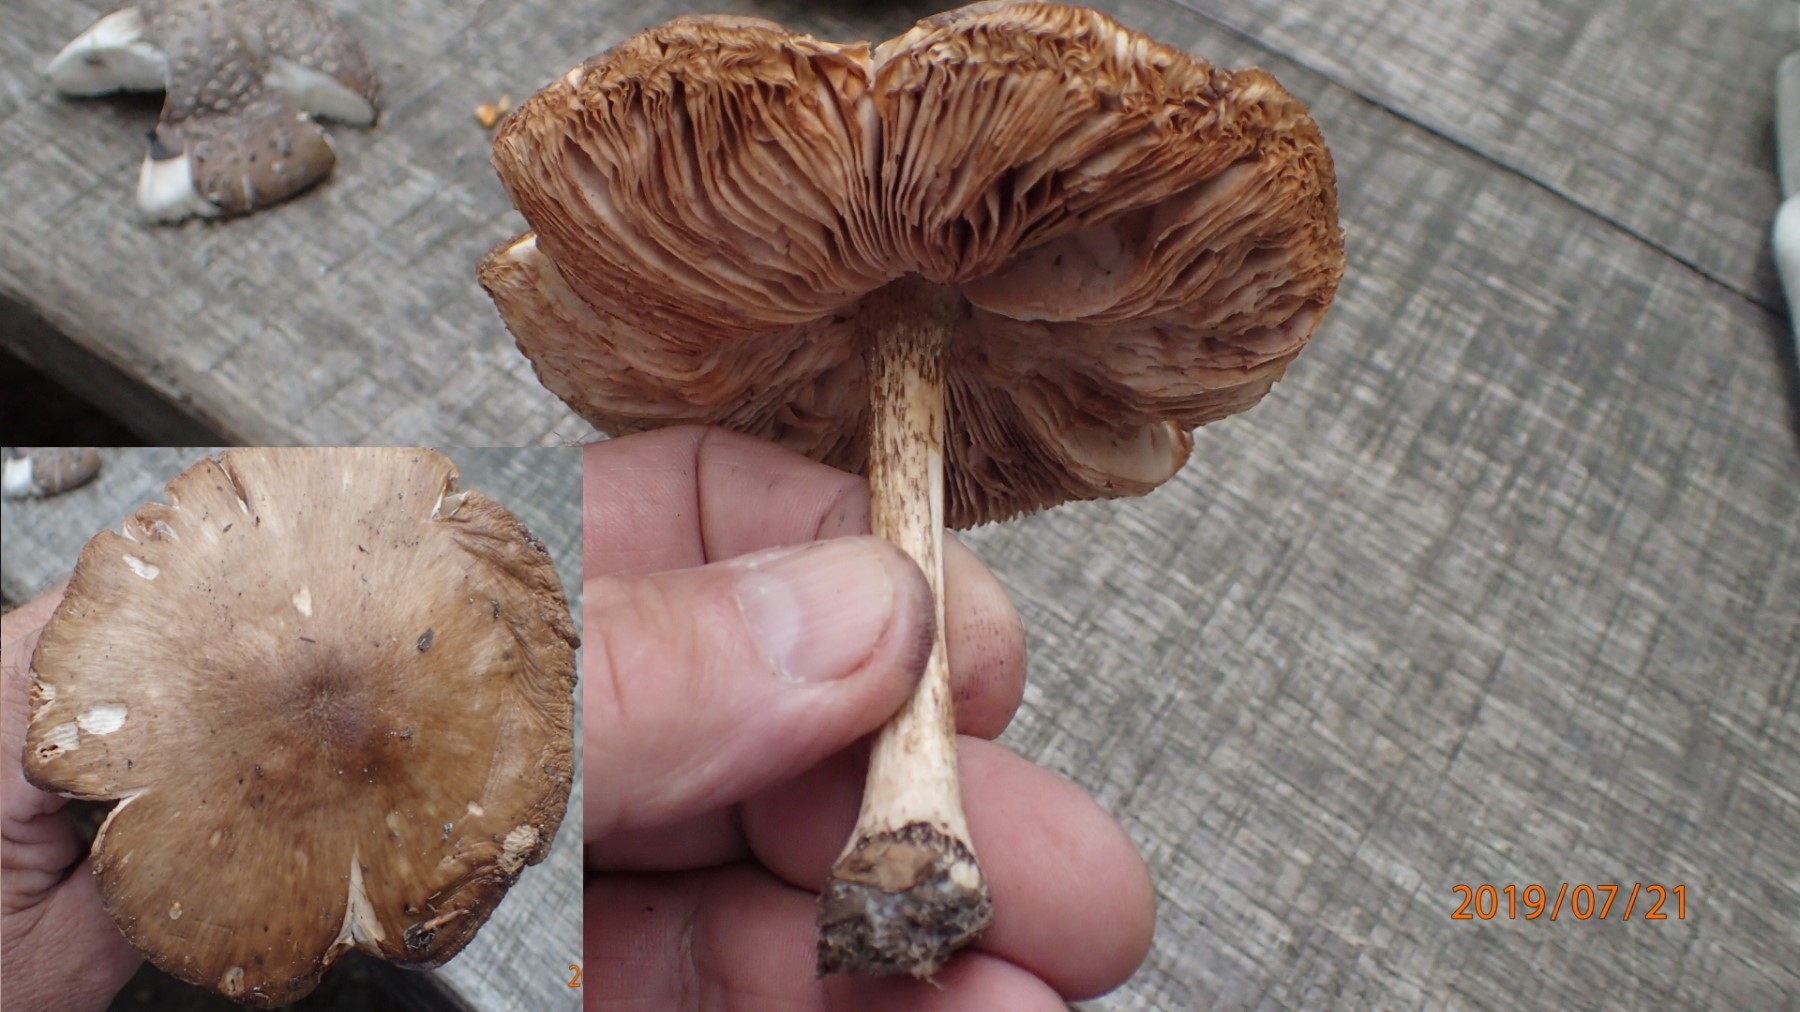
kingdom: Fungi
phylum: Basidiomycota
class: Agaricomycetes
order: Agaricales
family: Pluteaceae
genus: Pluteus
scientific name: Pluteus cervinus
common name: sodfarvet skærmhat
